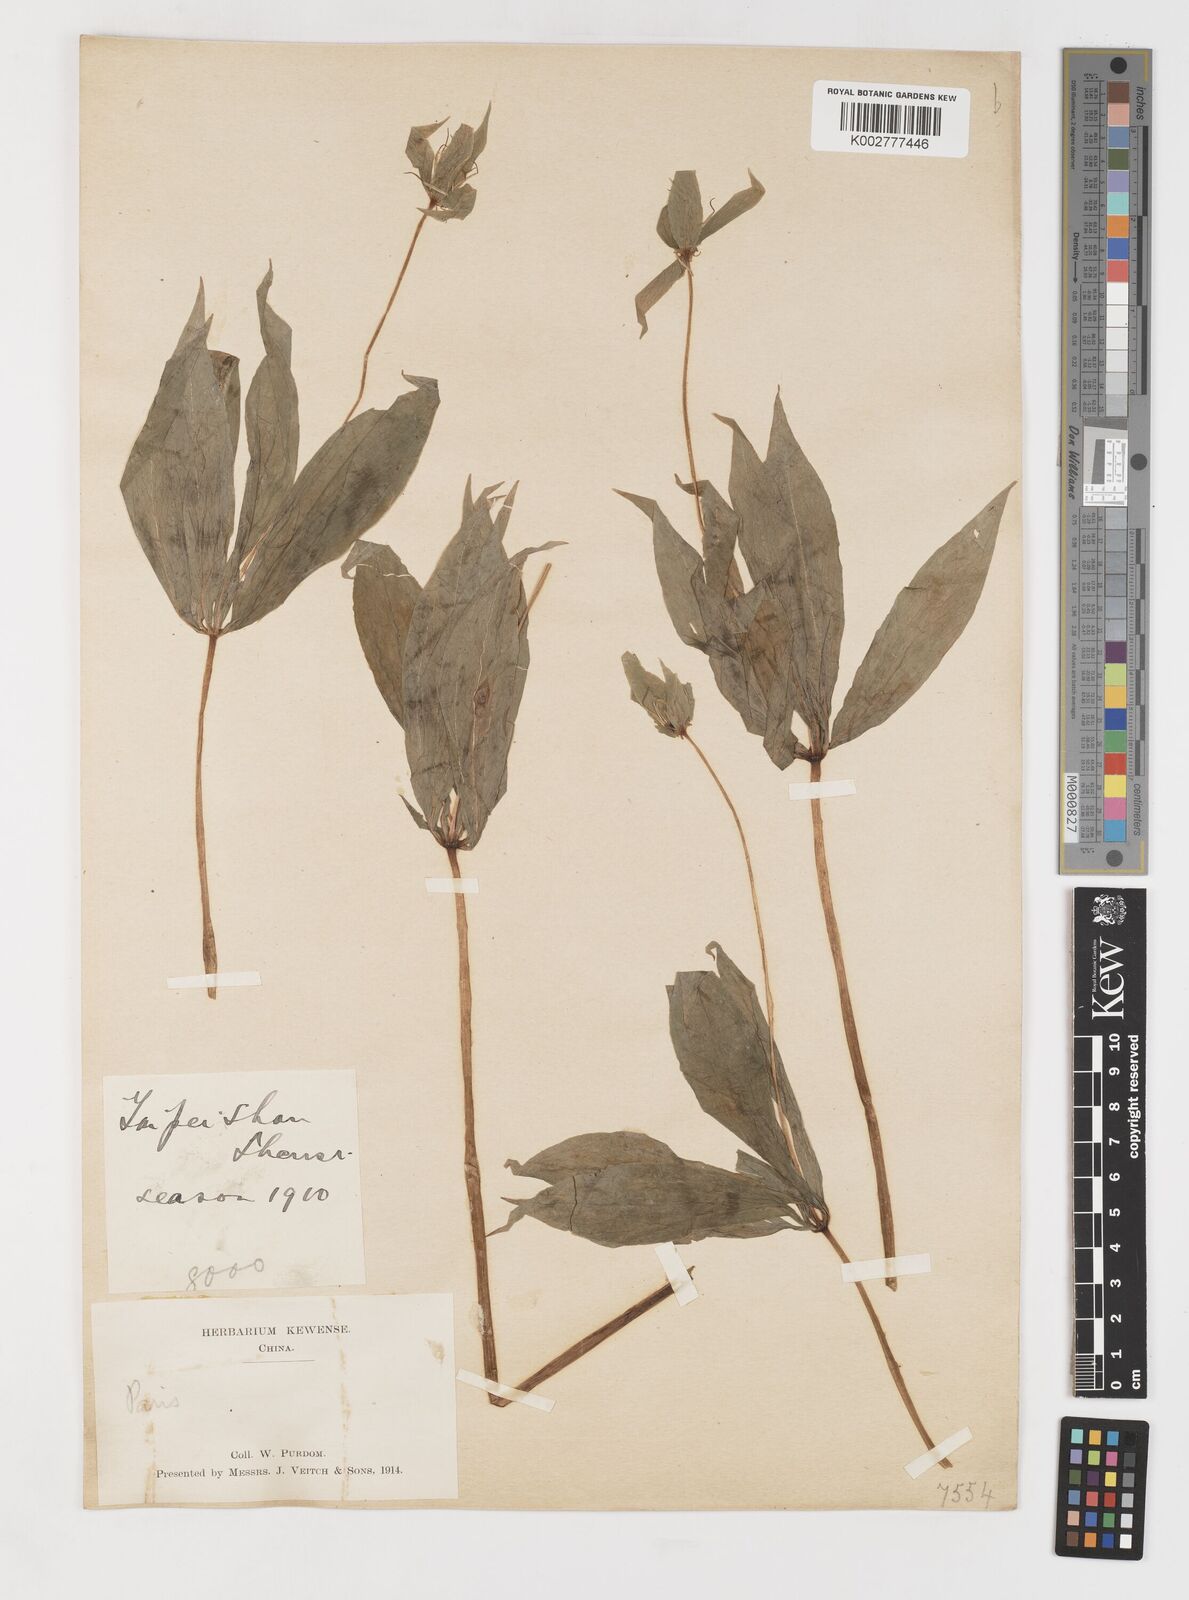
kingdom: Plantae
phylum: Tracheophyta
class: Liliopsida
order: Liliales
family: Melanthiaceae
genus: Paris
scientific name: Paris polyphylla
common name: Love apple
